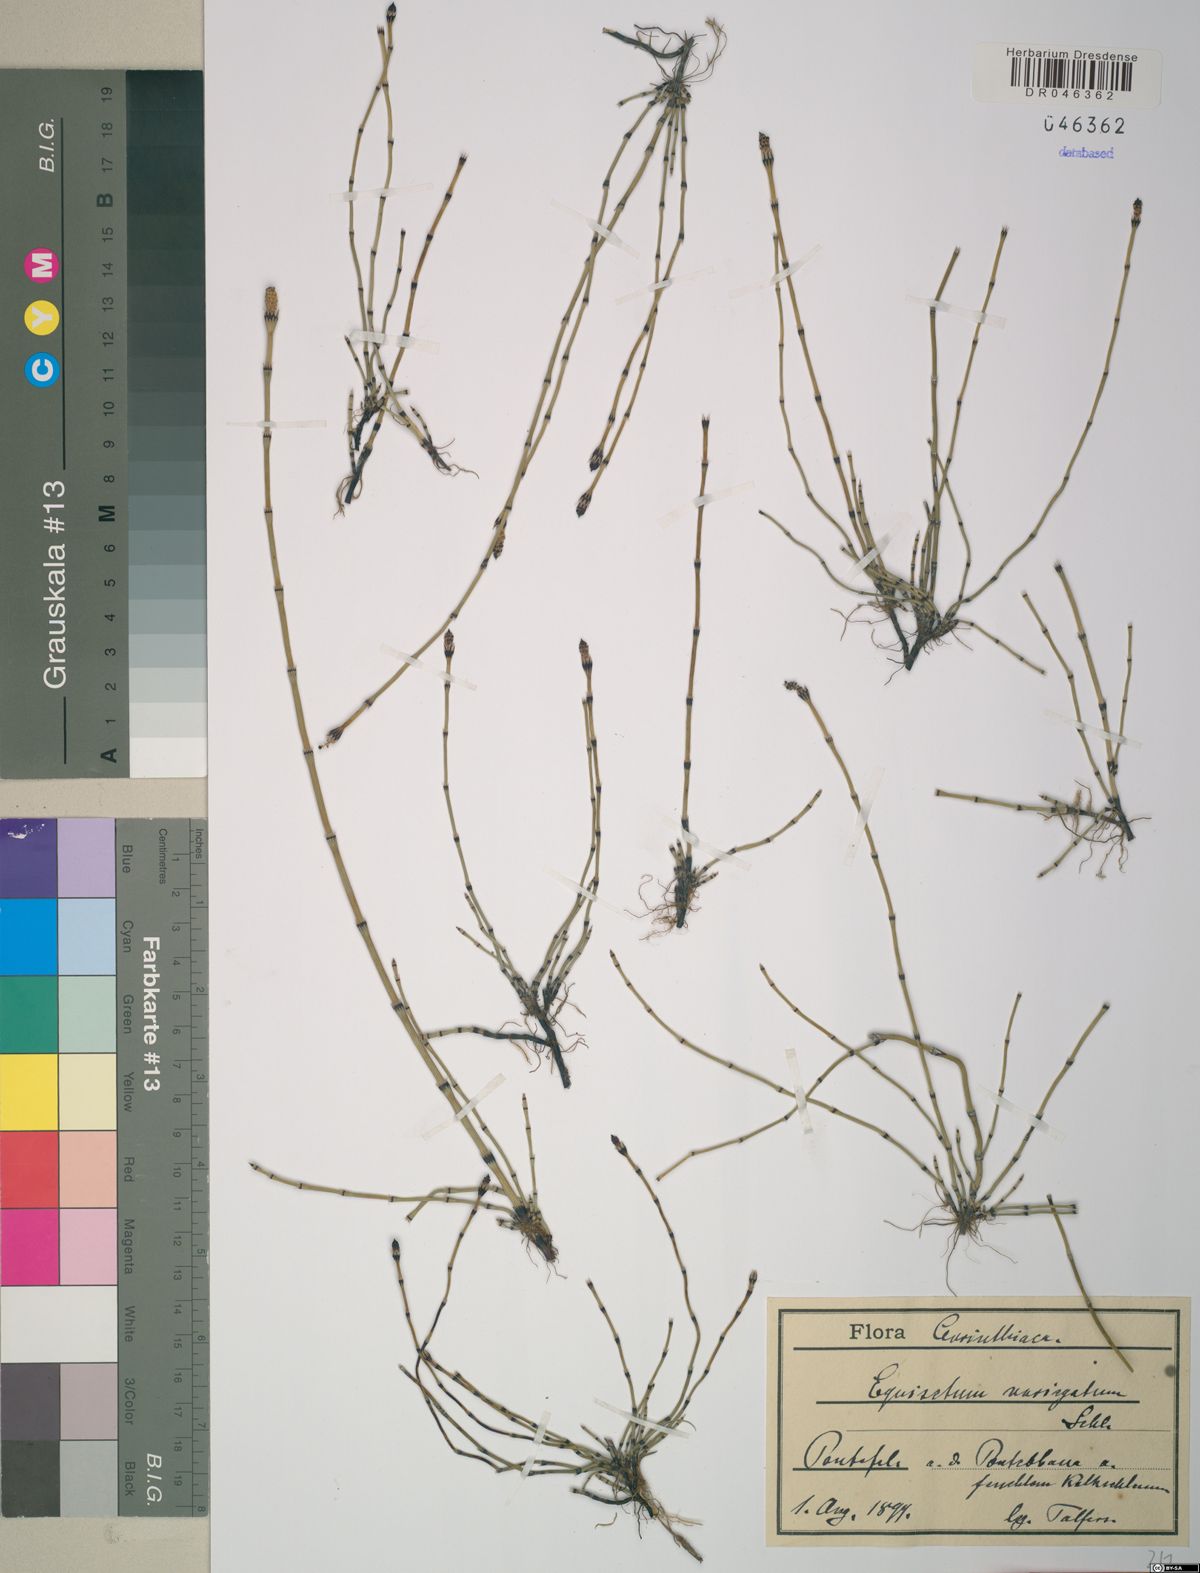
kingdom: Plantae
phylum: Tracheophyta
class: Polypodiopsida
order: Equisetales
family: Equisetaceae
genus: Equisetum
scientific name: Equisetum variegatum
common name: Variegated horsetail
